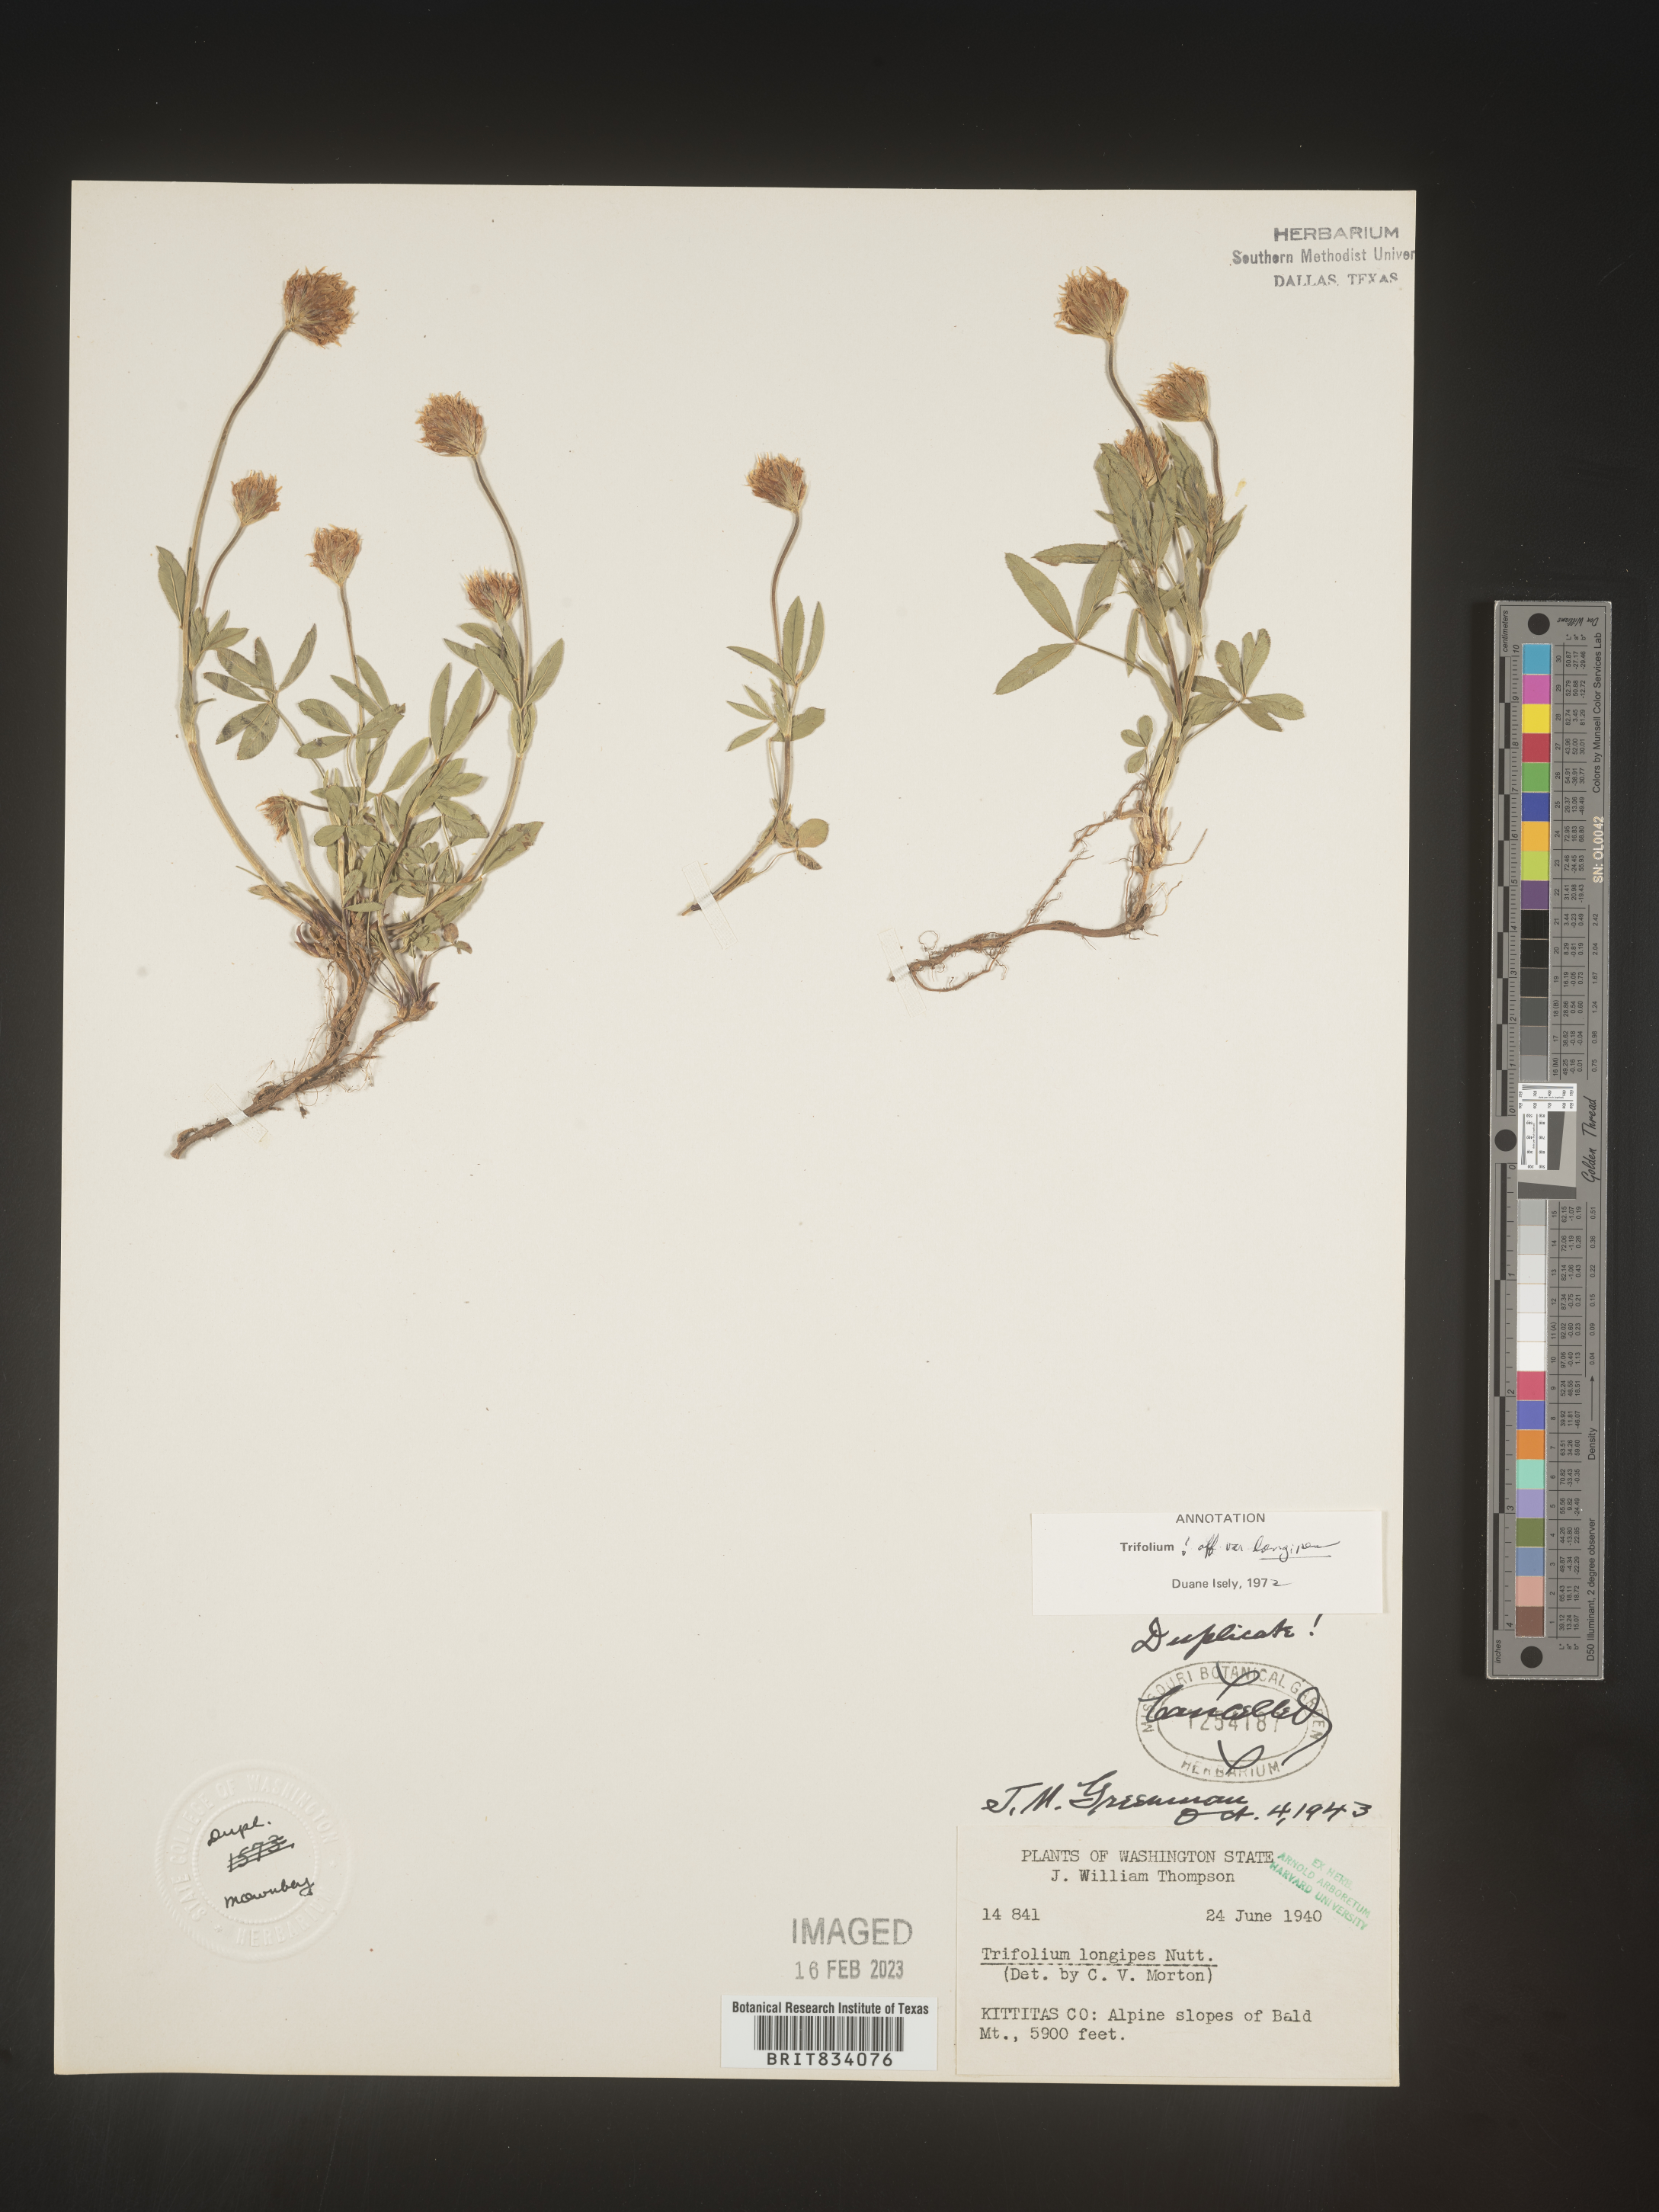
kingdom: Plantae
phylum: Tracheophyta
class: Magnoliopsida
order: Fabales
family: Fabaceae
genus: Trifolium
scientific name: Trifolium
